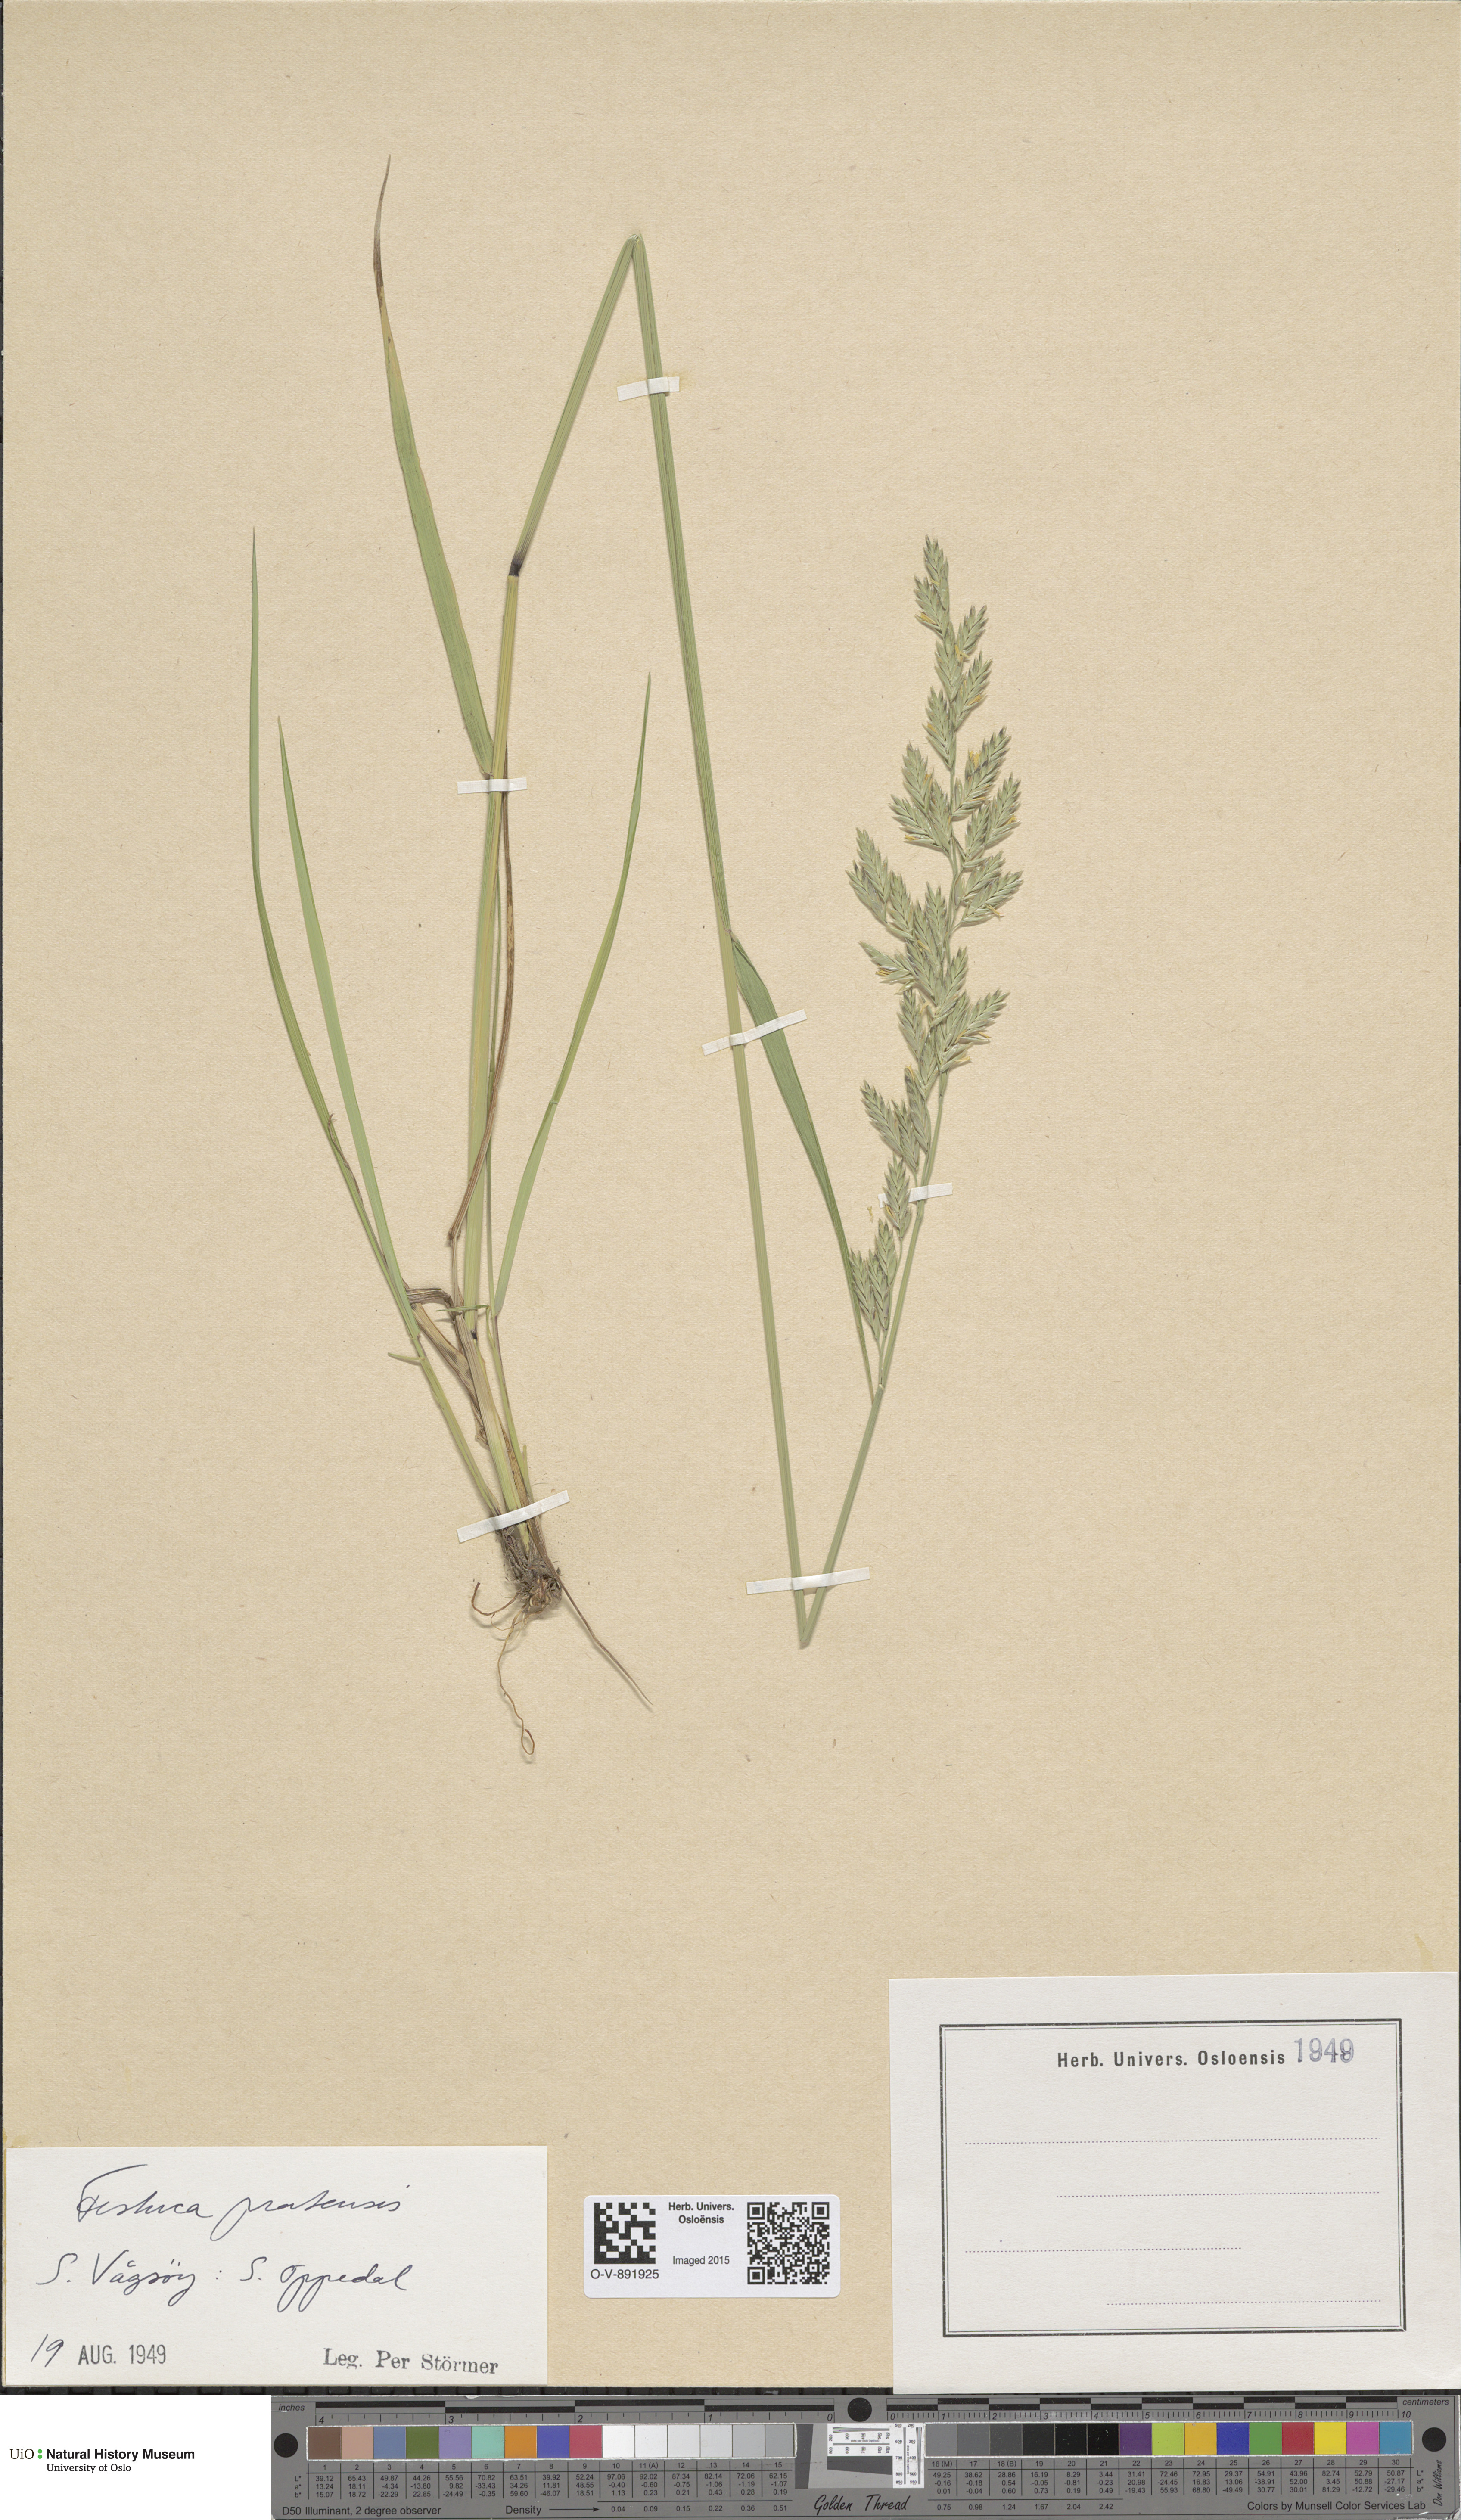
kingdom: Plantae
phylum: Tracheophyta
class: Liliopsida
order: Poales
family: Poaceae
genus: Lolium
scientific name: Lolium pratense
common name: Dover grass
